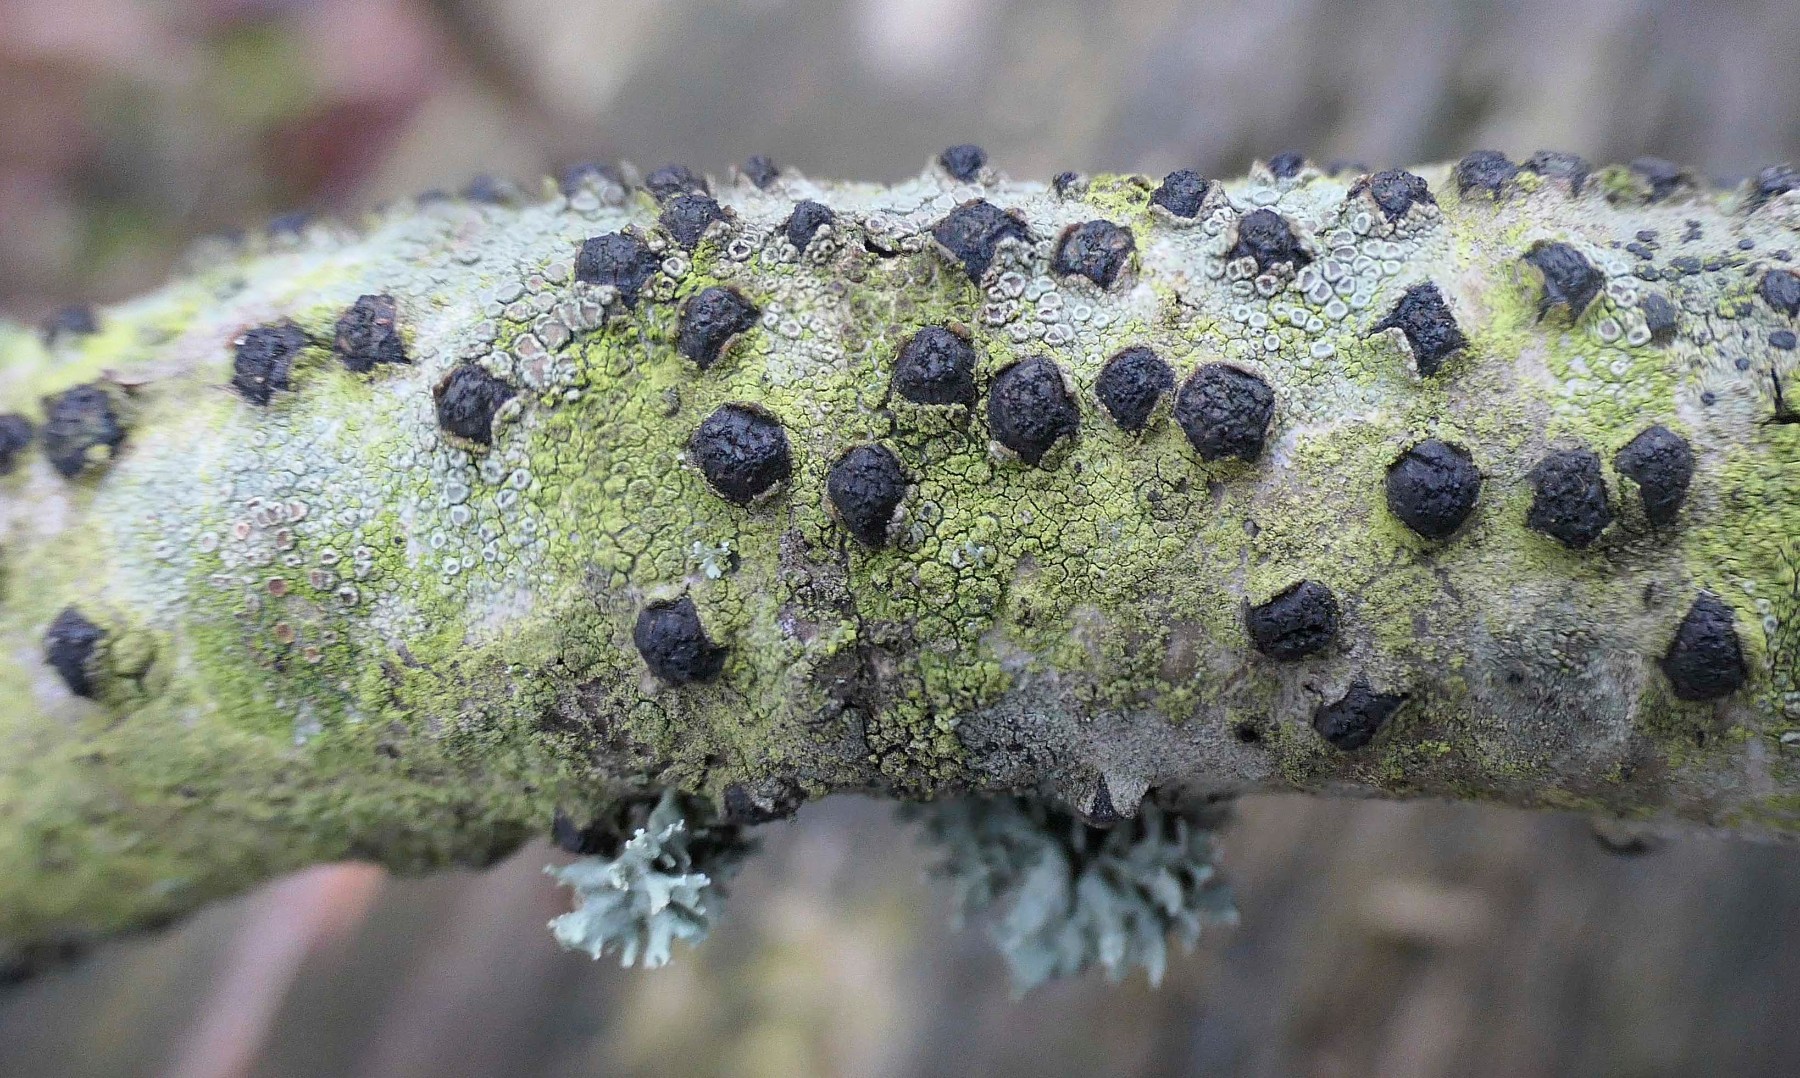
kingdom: Fungi
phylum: Ascomycota
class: Sordariomycetes
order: Xylariales
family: Diatrypaceae
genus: Diatrypella
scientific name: Diatrypella quercina
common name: ege-kulskorpe
